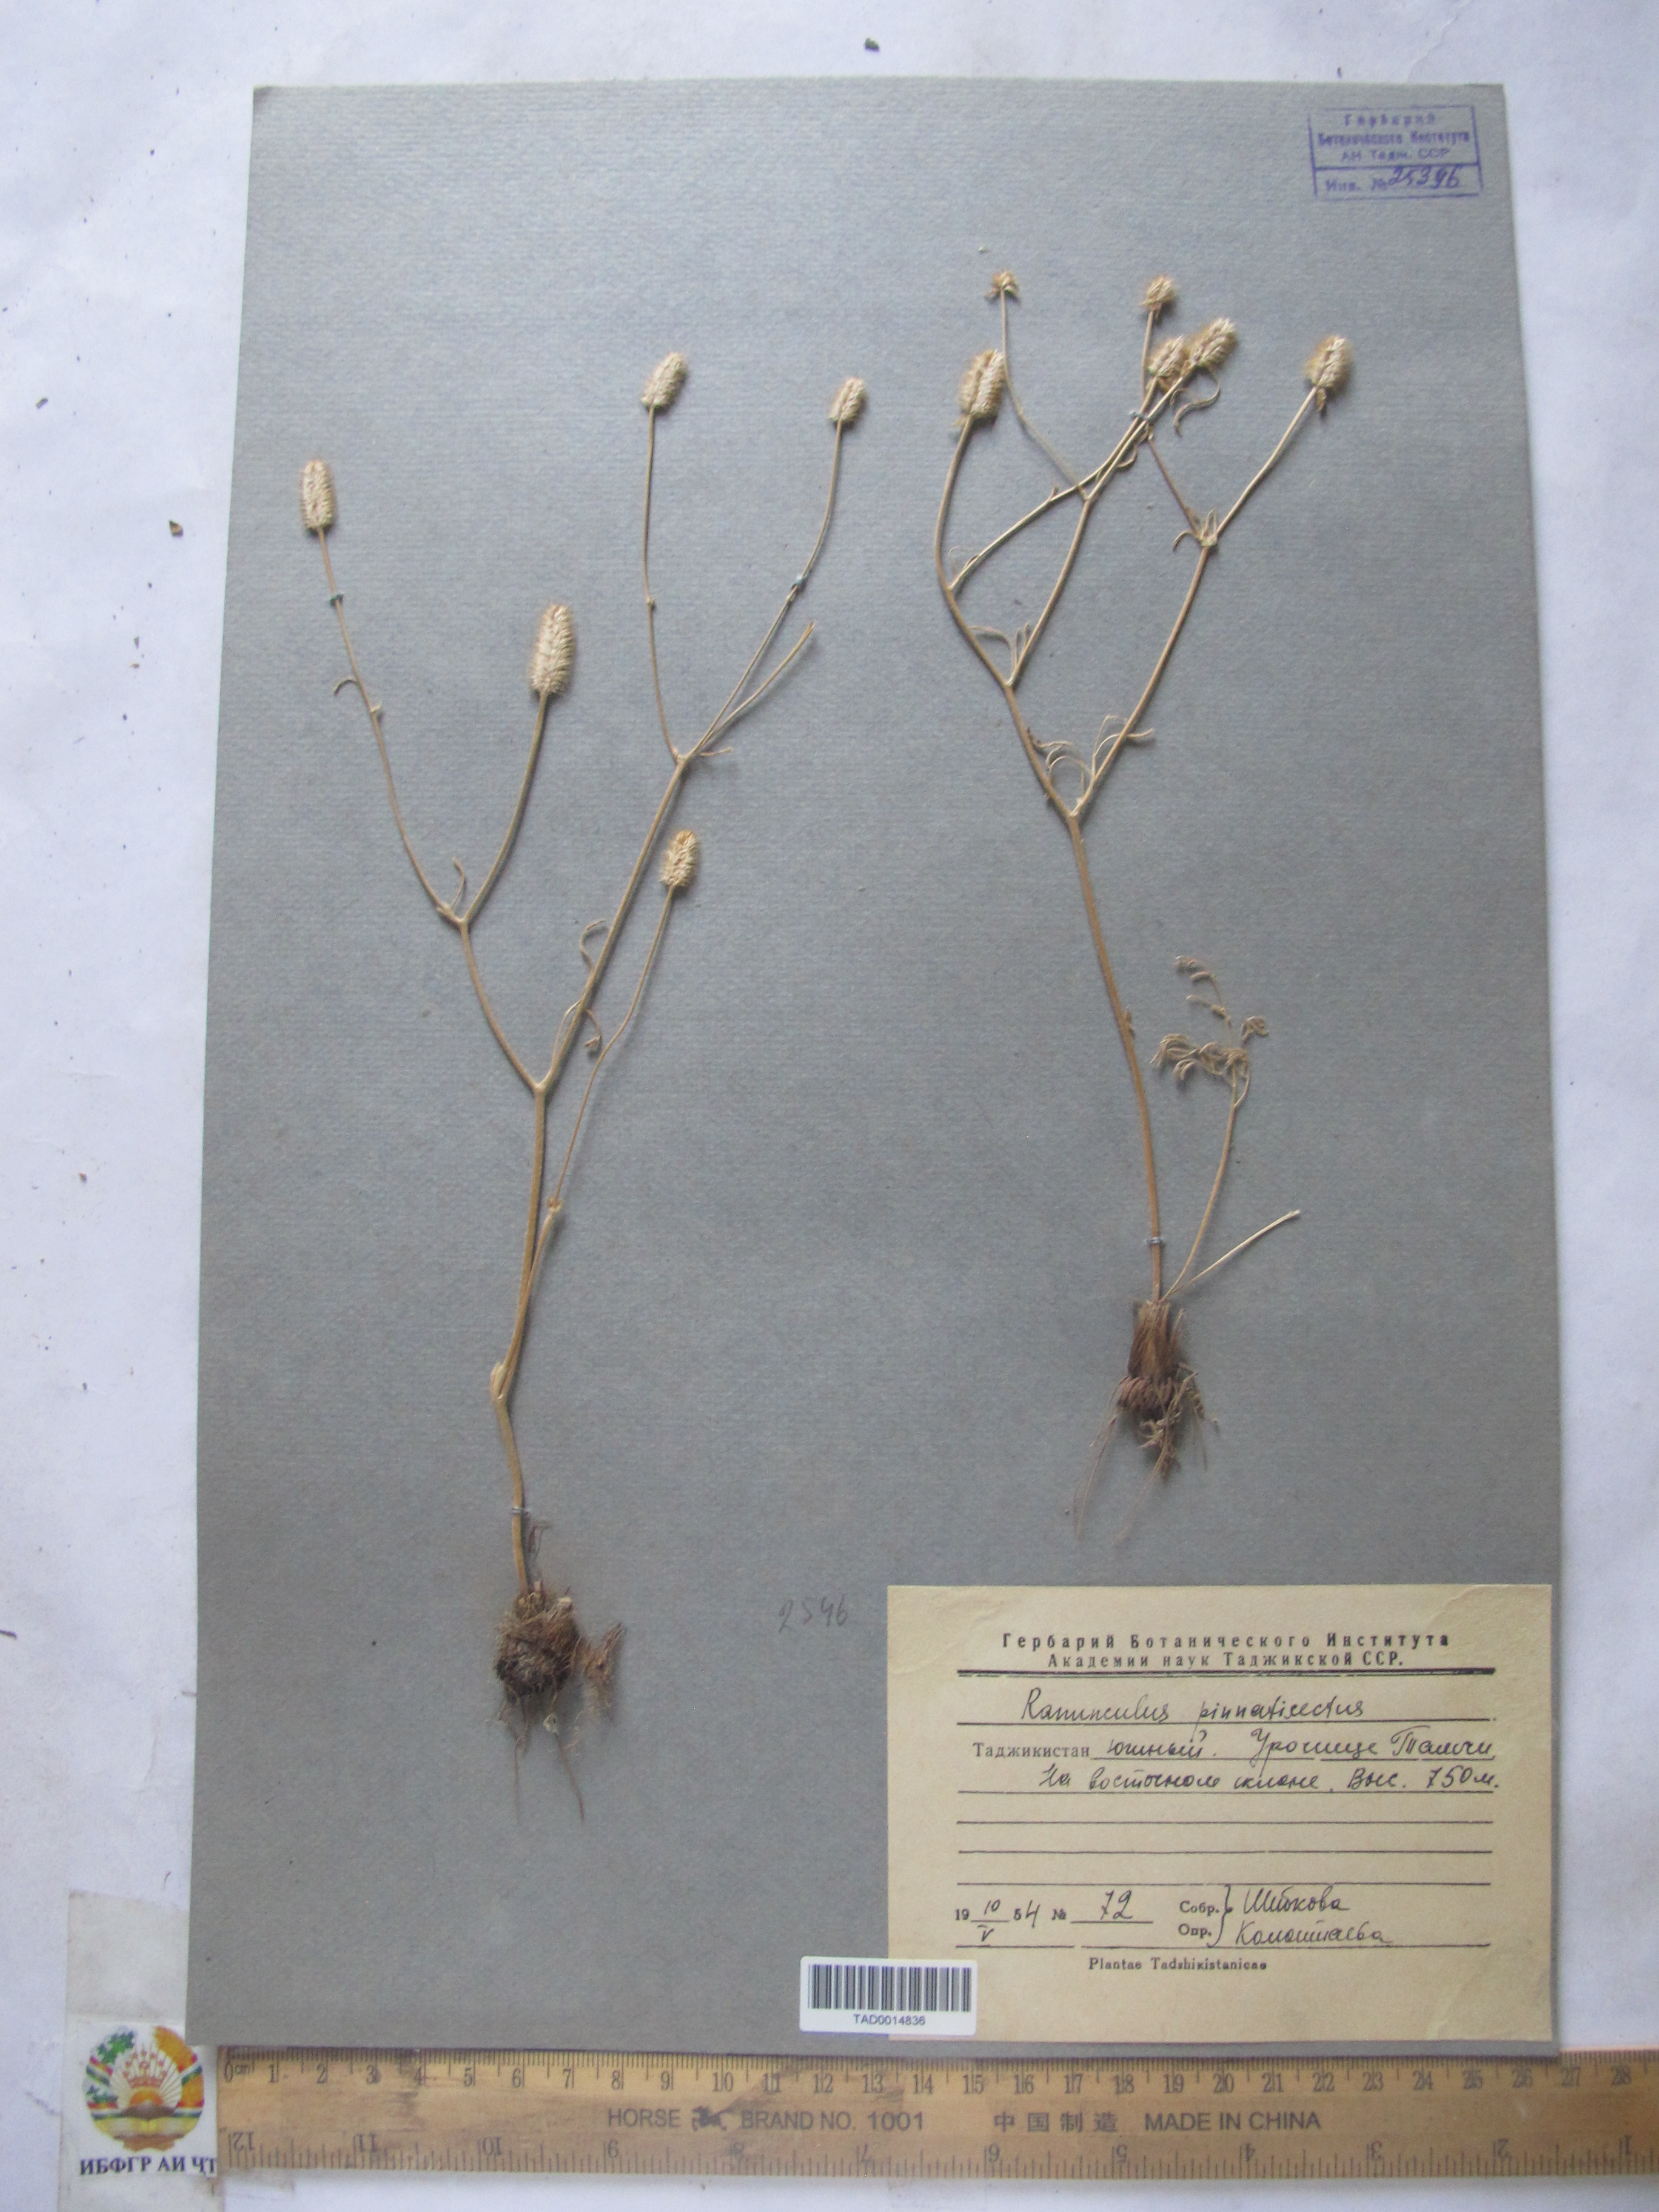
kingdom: Plantae
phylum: Tracheophyta
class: Magnoliopsida
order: Ranunculales
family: Ranunculaceae
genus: Ranunculus
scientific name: Ranunculus pinnatisectus
